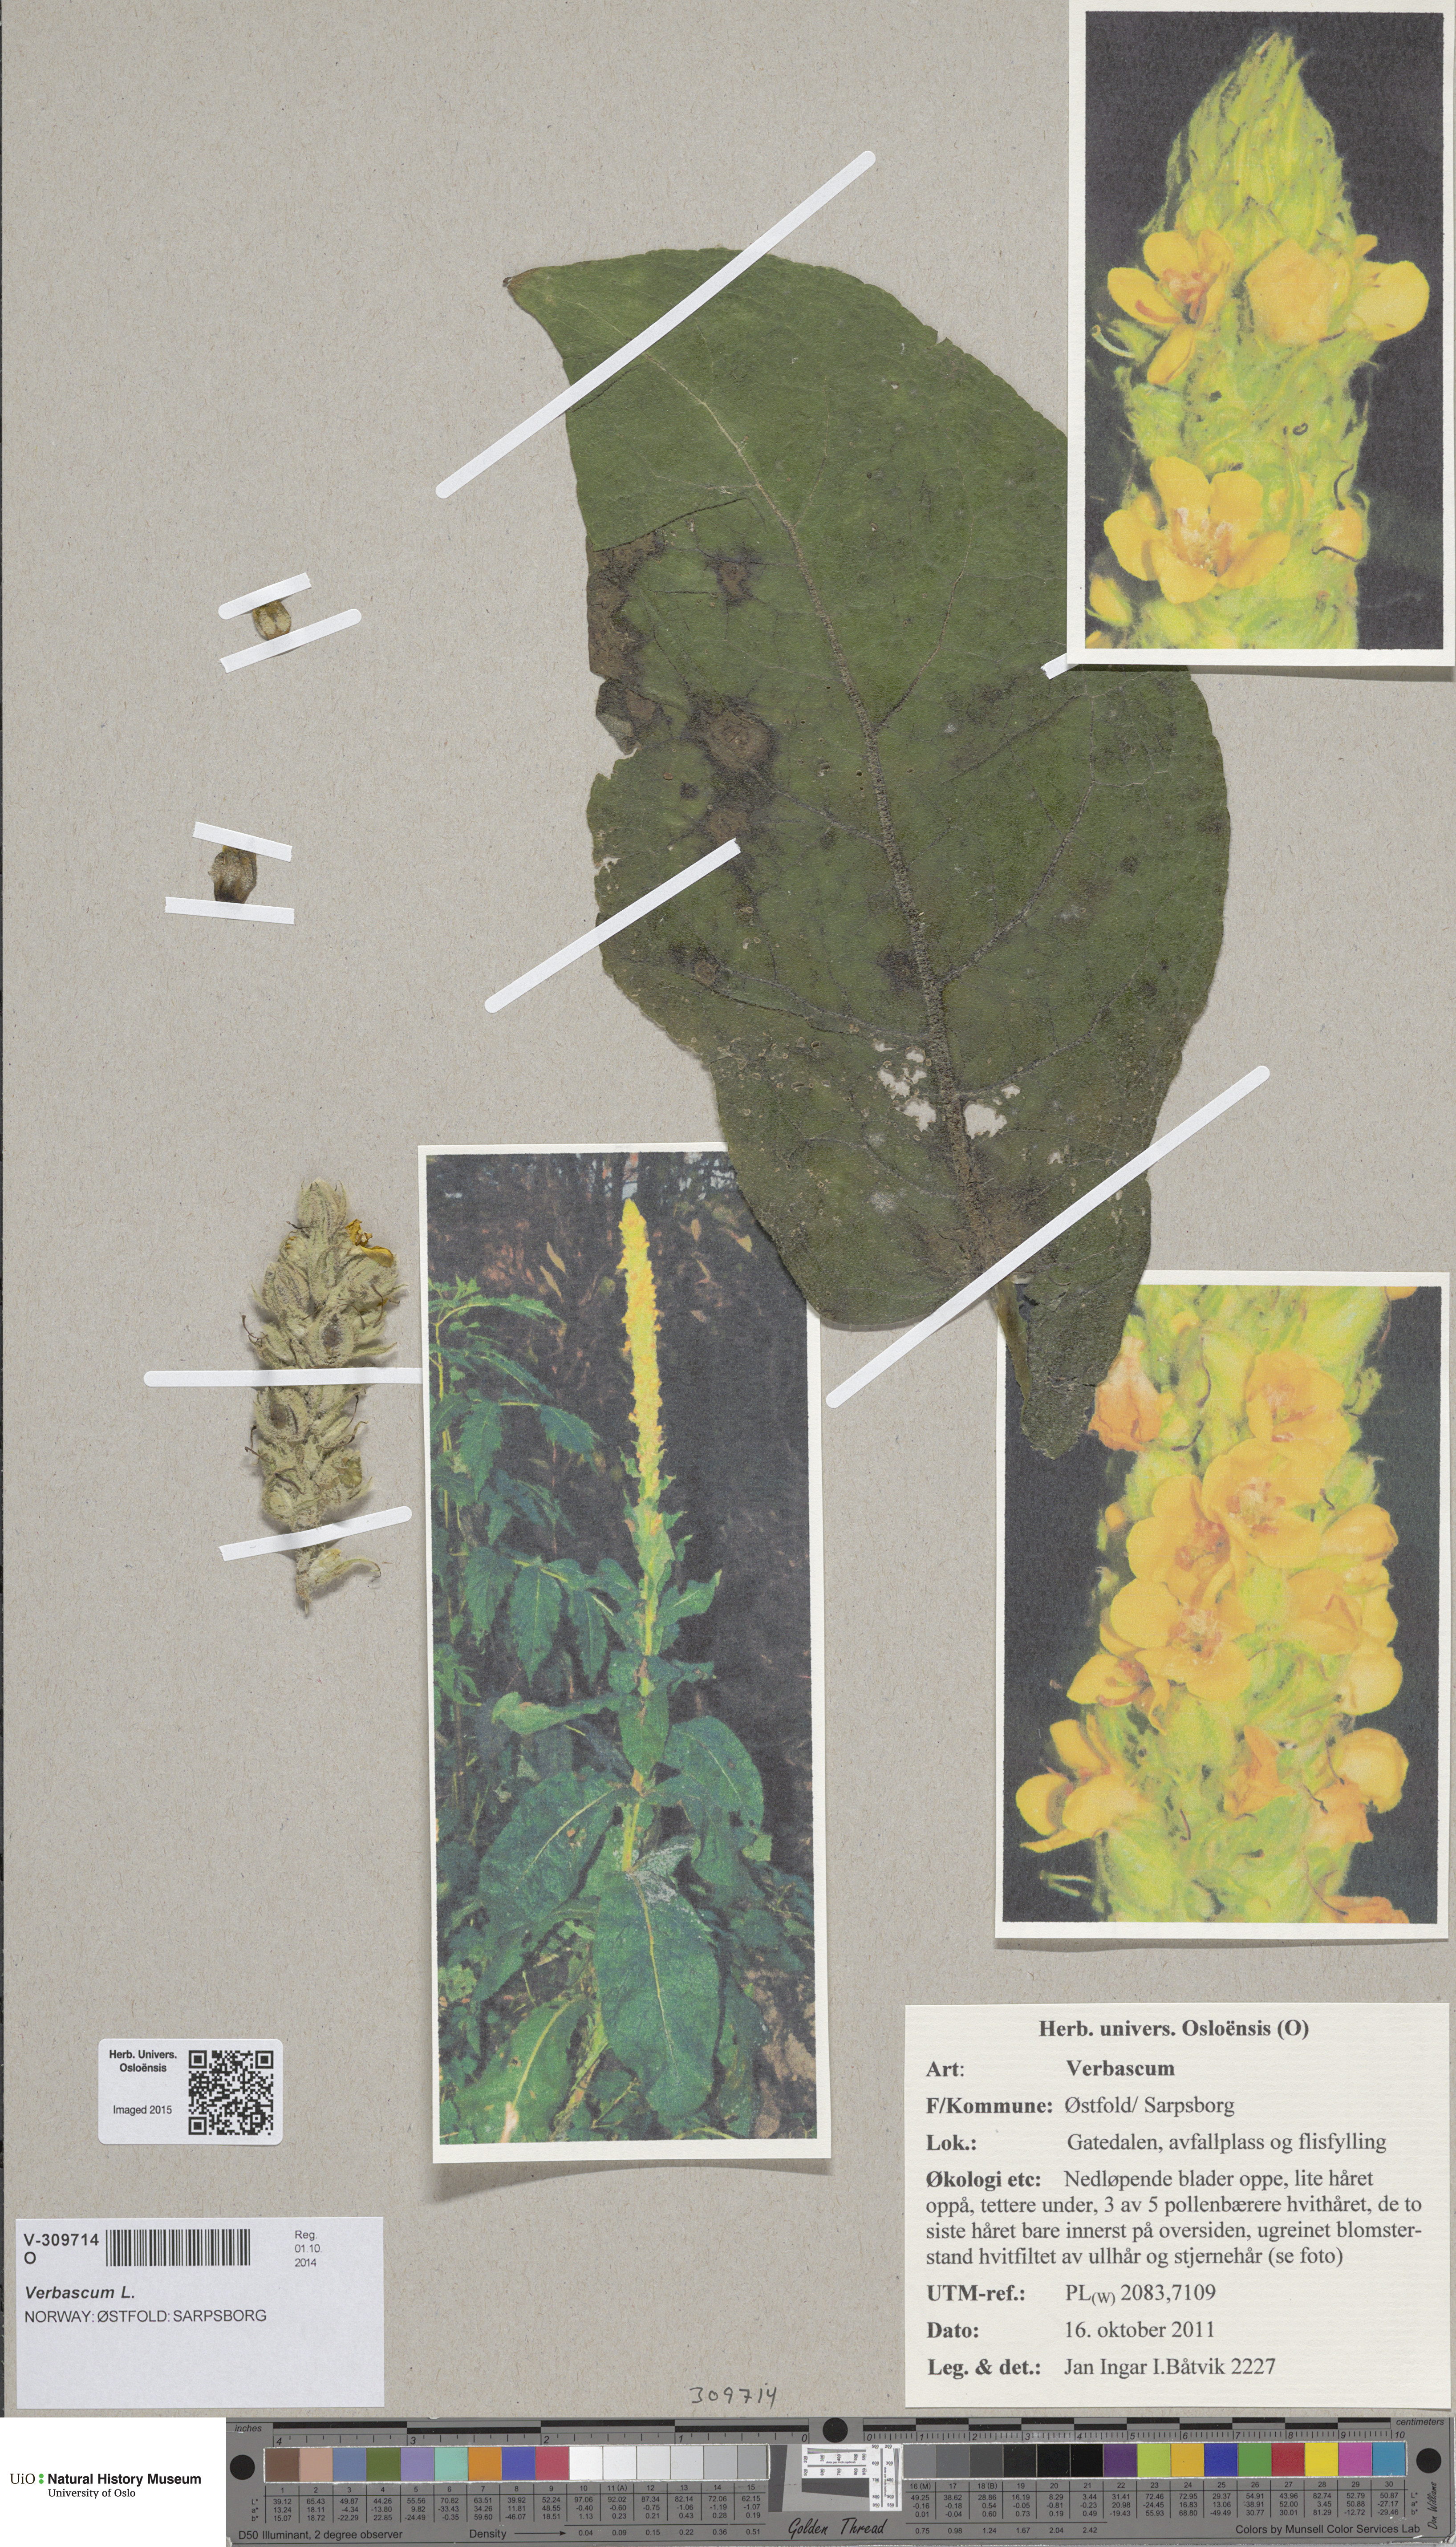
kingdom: Plantae
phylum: Tracheophyta
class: Magnoliopsida
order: Lamiales
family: Scrophulariaceae
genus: Verbascum
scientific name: Verbascum densiflorum
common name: Dense-flowered mullein
